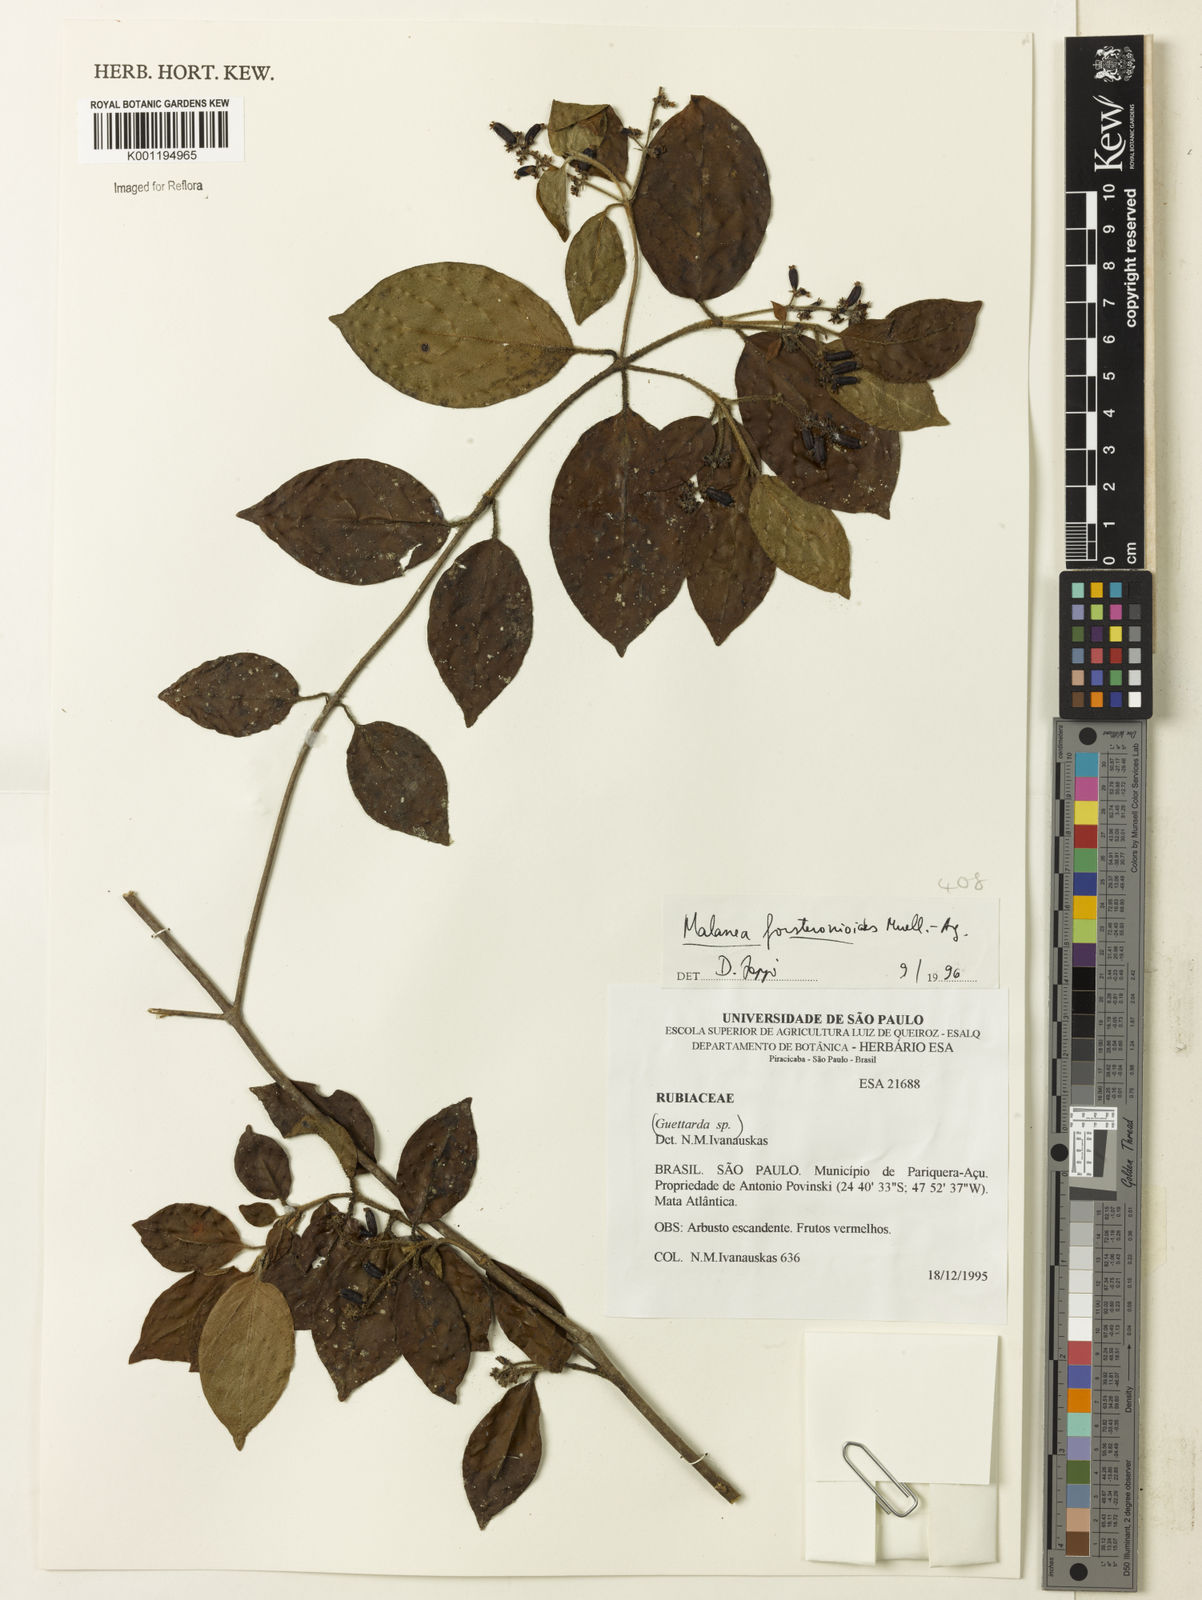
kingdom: Plantae
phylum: Tracheophyta
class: Magnoliopsida
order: Gentianales
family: Rubiaceae
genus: Malanea
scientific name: Malanea
